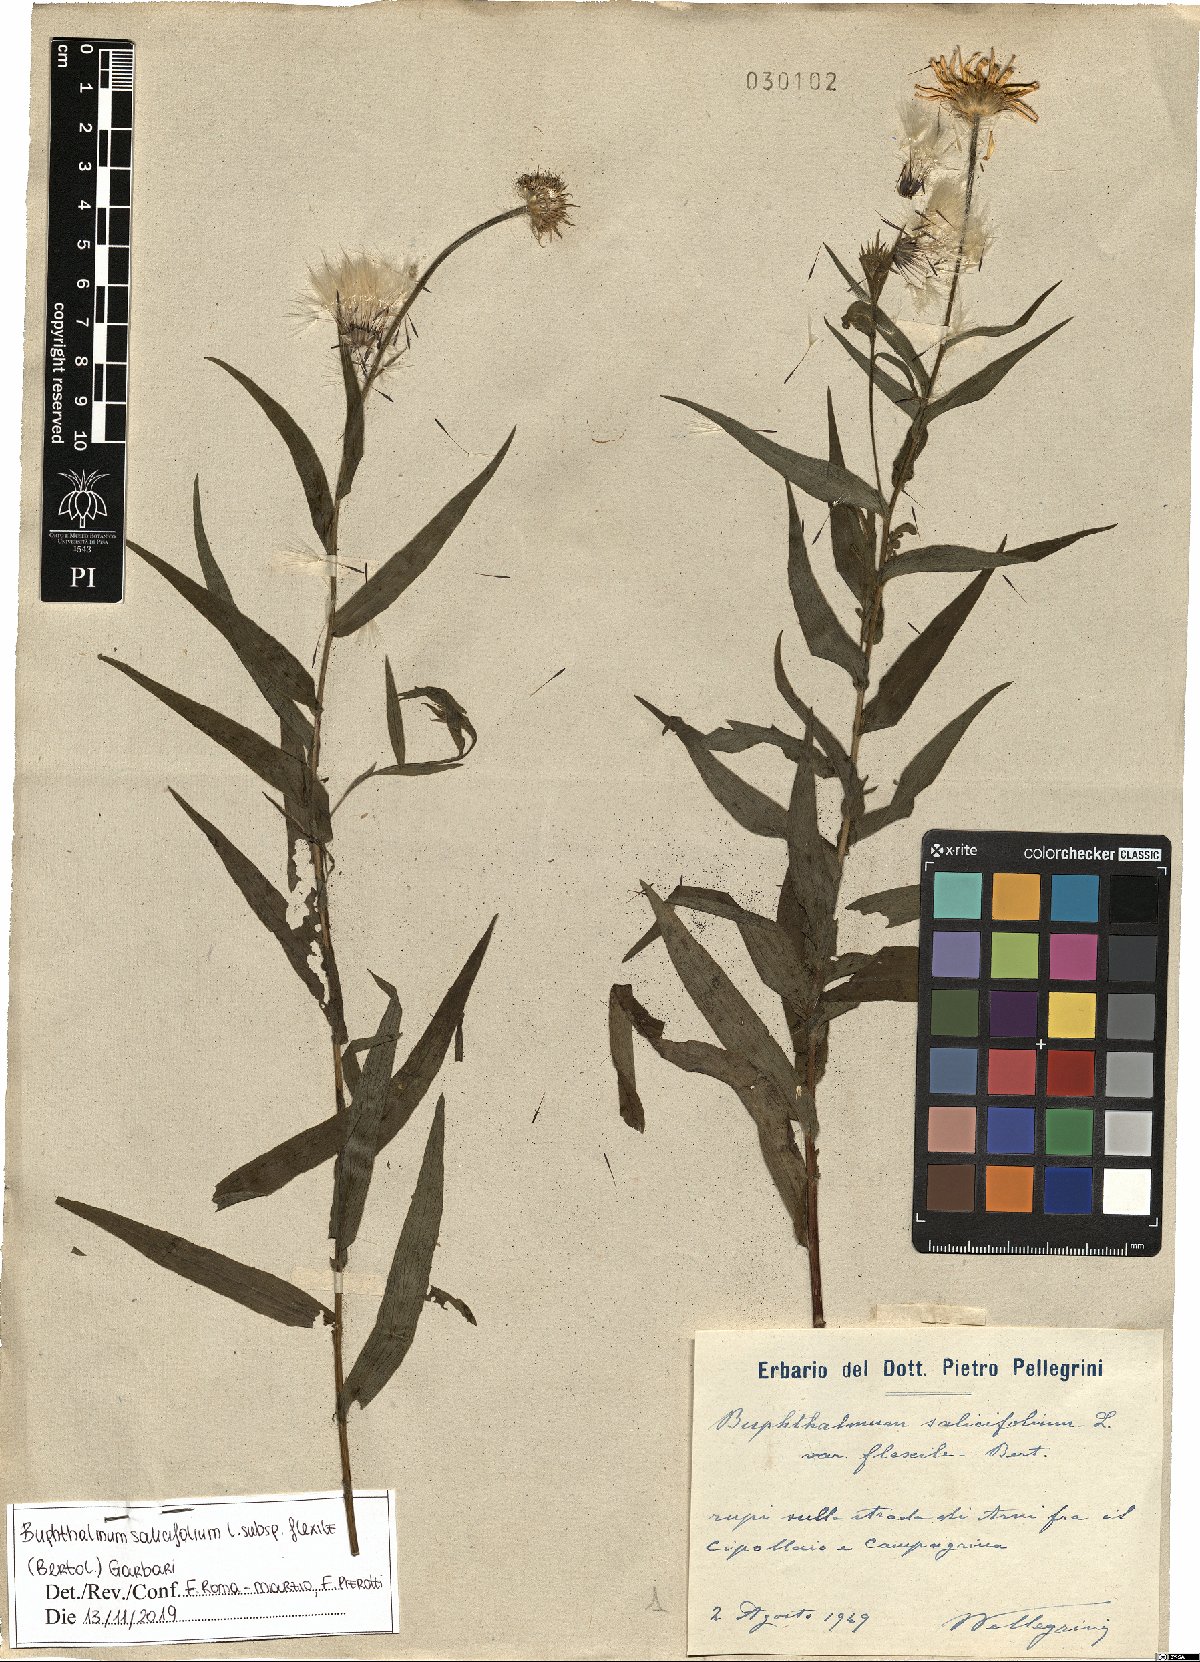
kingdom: Plantae
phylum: Tracheophyta
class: Magnoliopsida
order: Asterales
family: Asteraceae
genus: Buphthalmum
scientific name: Buphthalmum salicifolium
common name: Willow-leaved yellow-oxeye
